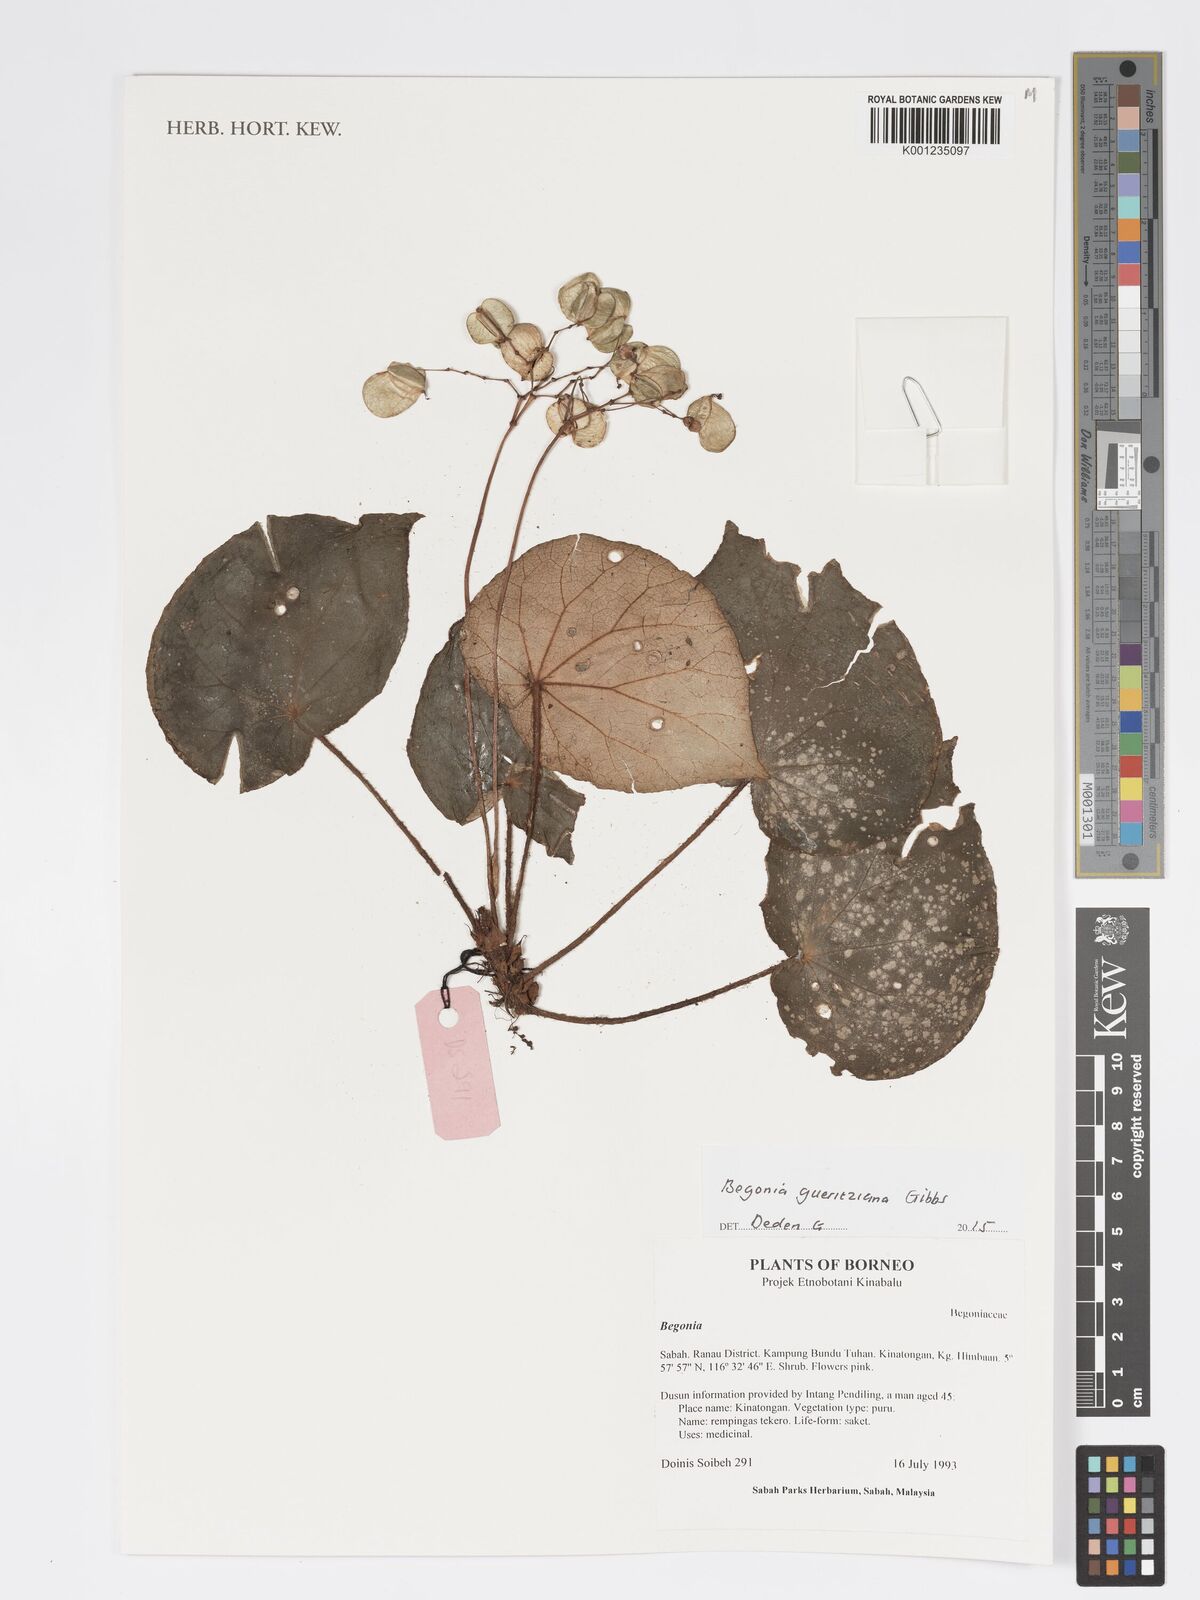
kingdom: Plantae
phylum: Tracheophyta
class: Magnoliopsida
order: Cucurbitales
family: Begoniaceae
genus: Begonia
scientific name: Begonia gueritziana
